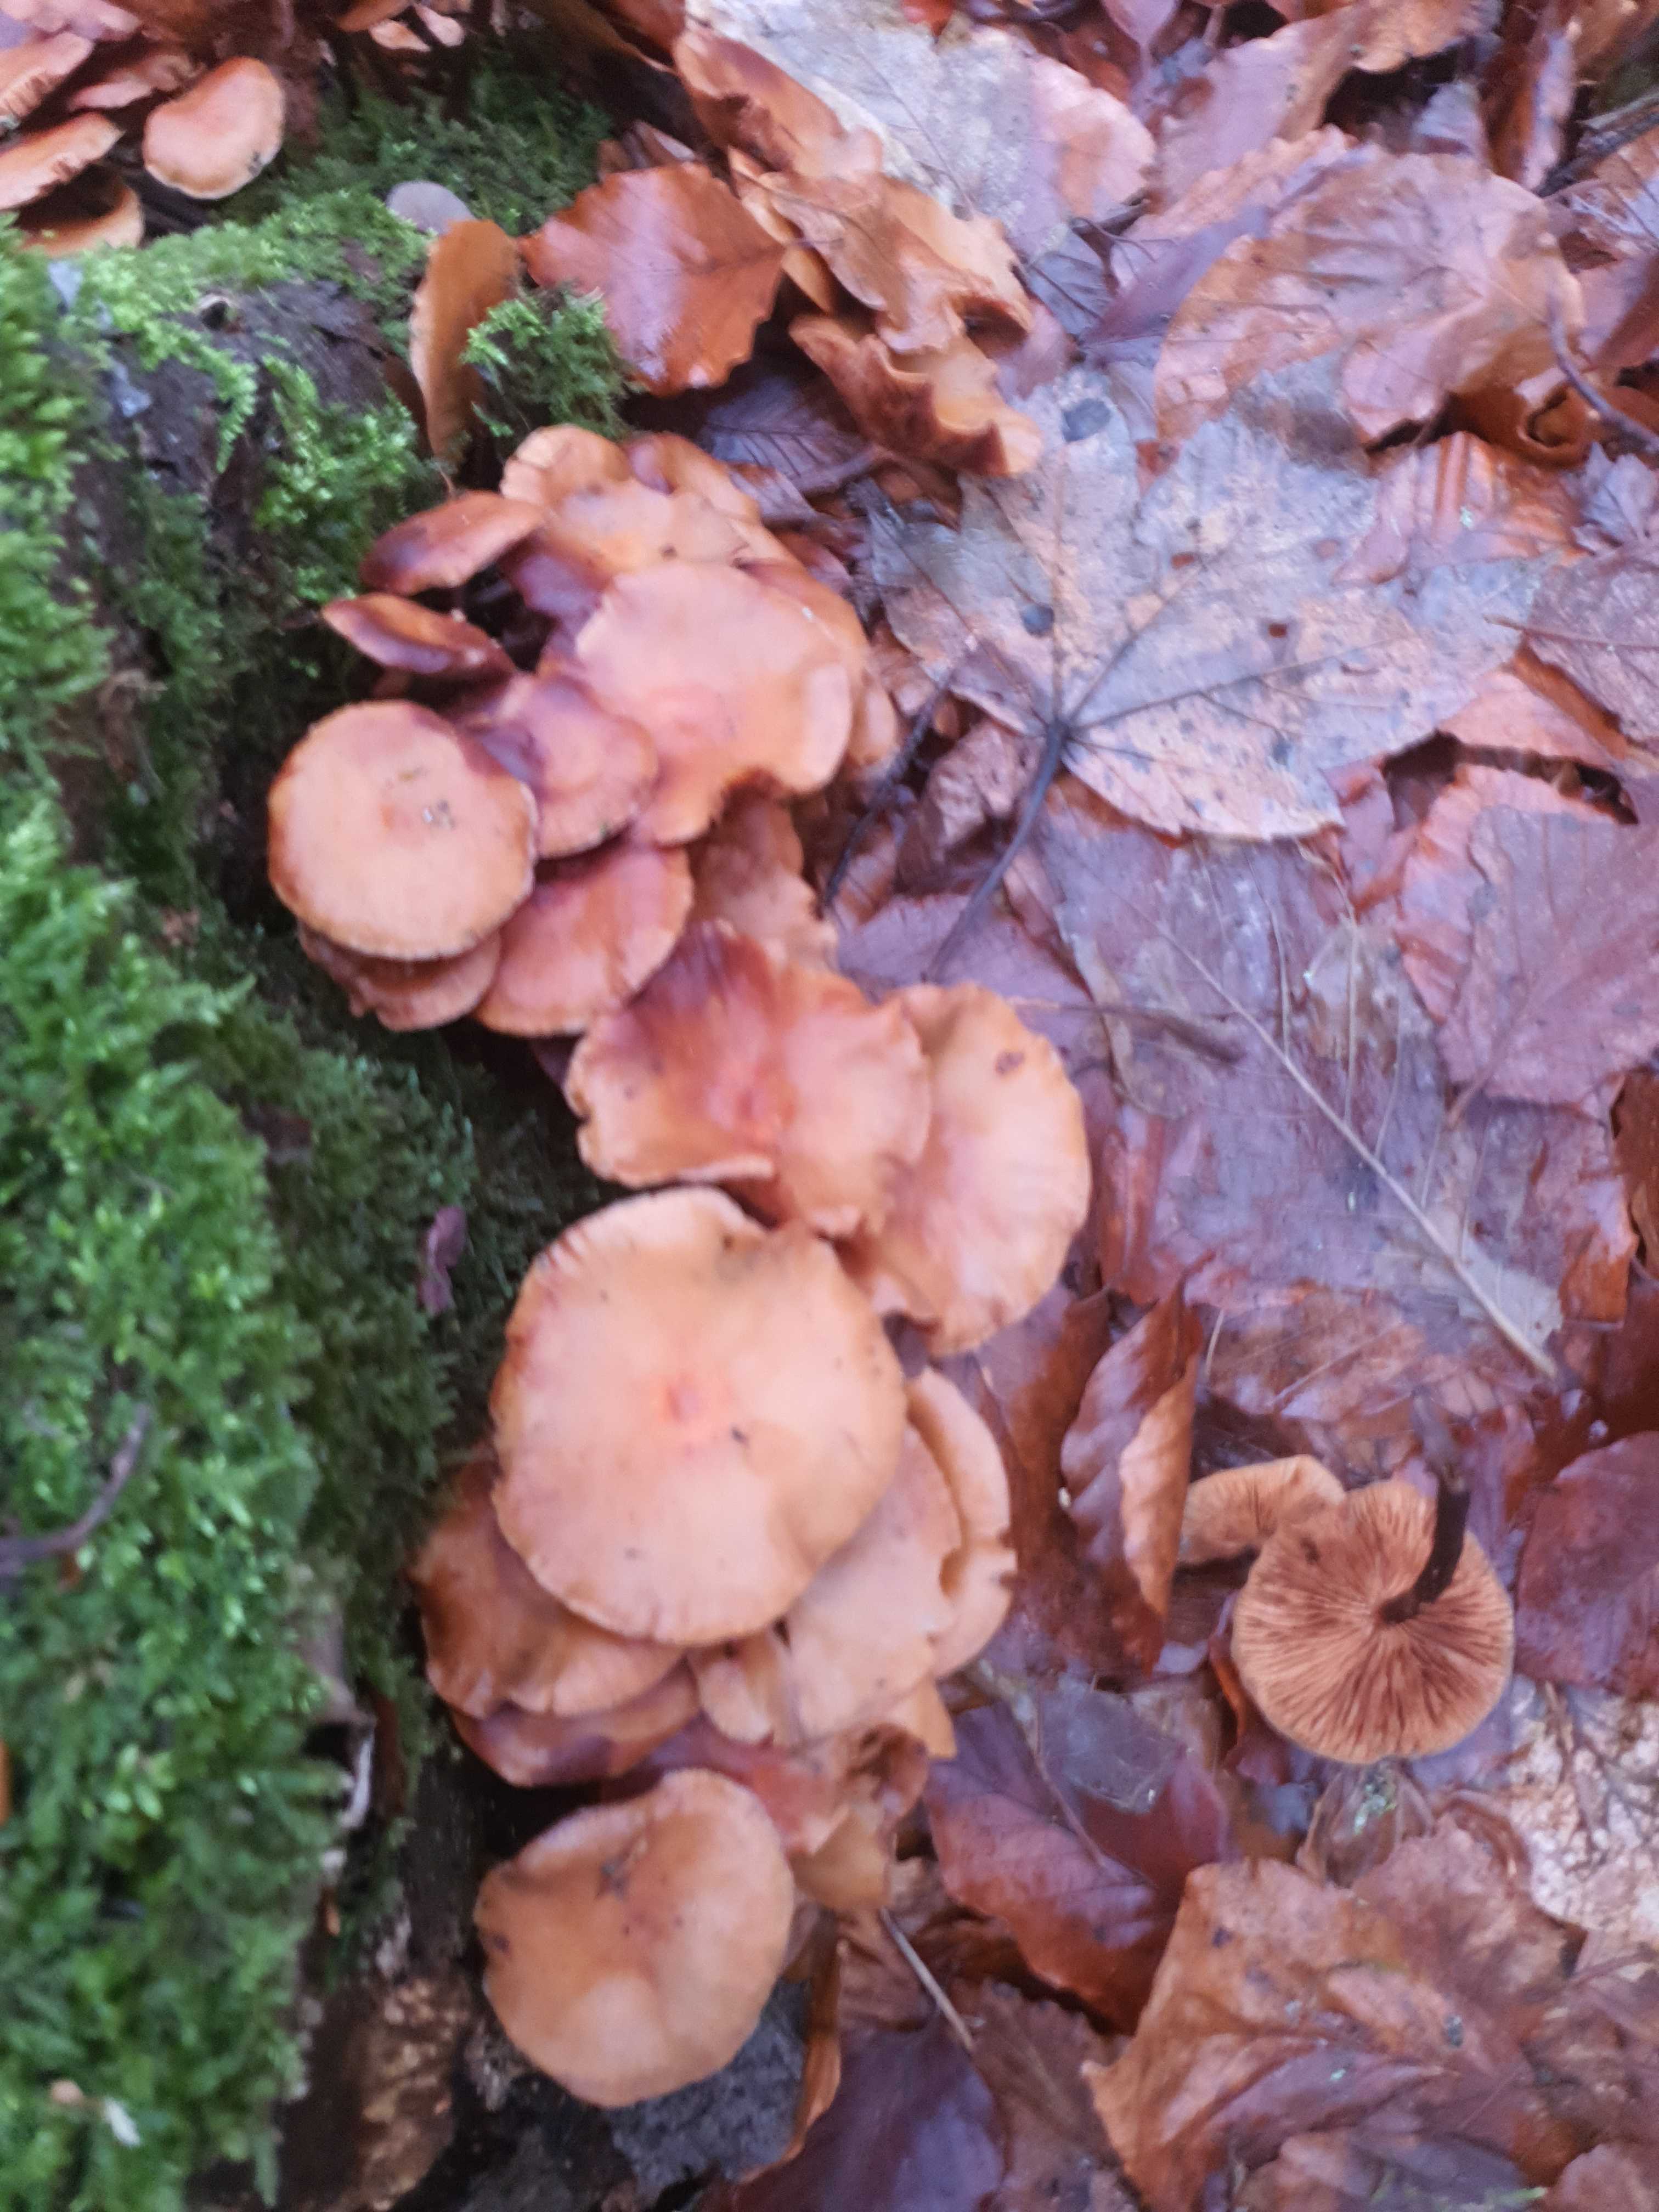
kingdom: Fungi
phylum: Basidiomycota
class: Agaricomycetes
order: Agaricales
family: Strophariaceae
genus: Kuehneromyces
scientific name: Kuehneromyces mutabilis
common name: foranderlig skælhat
